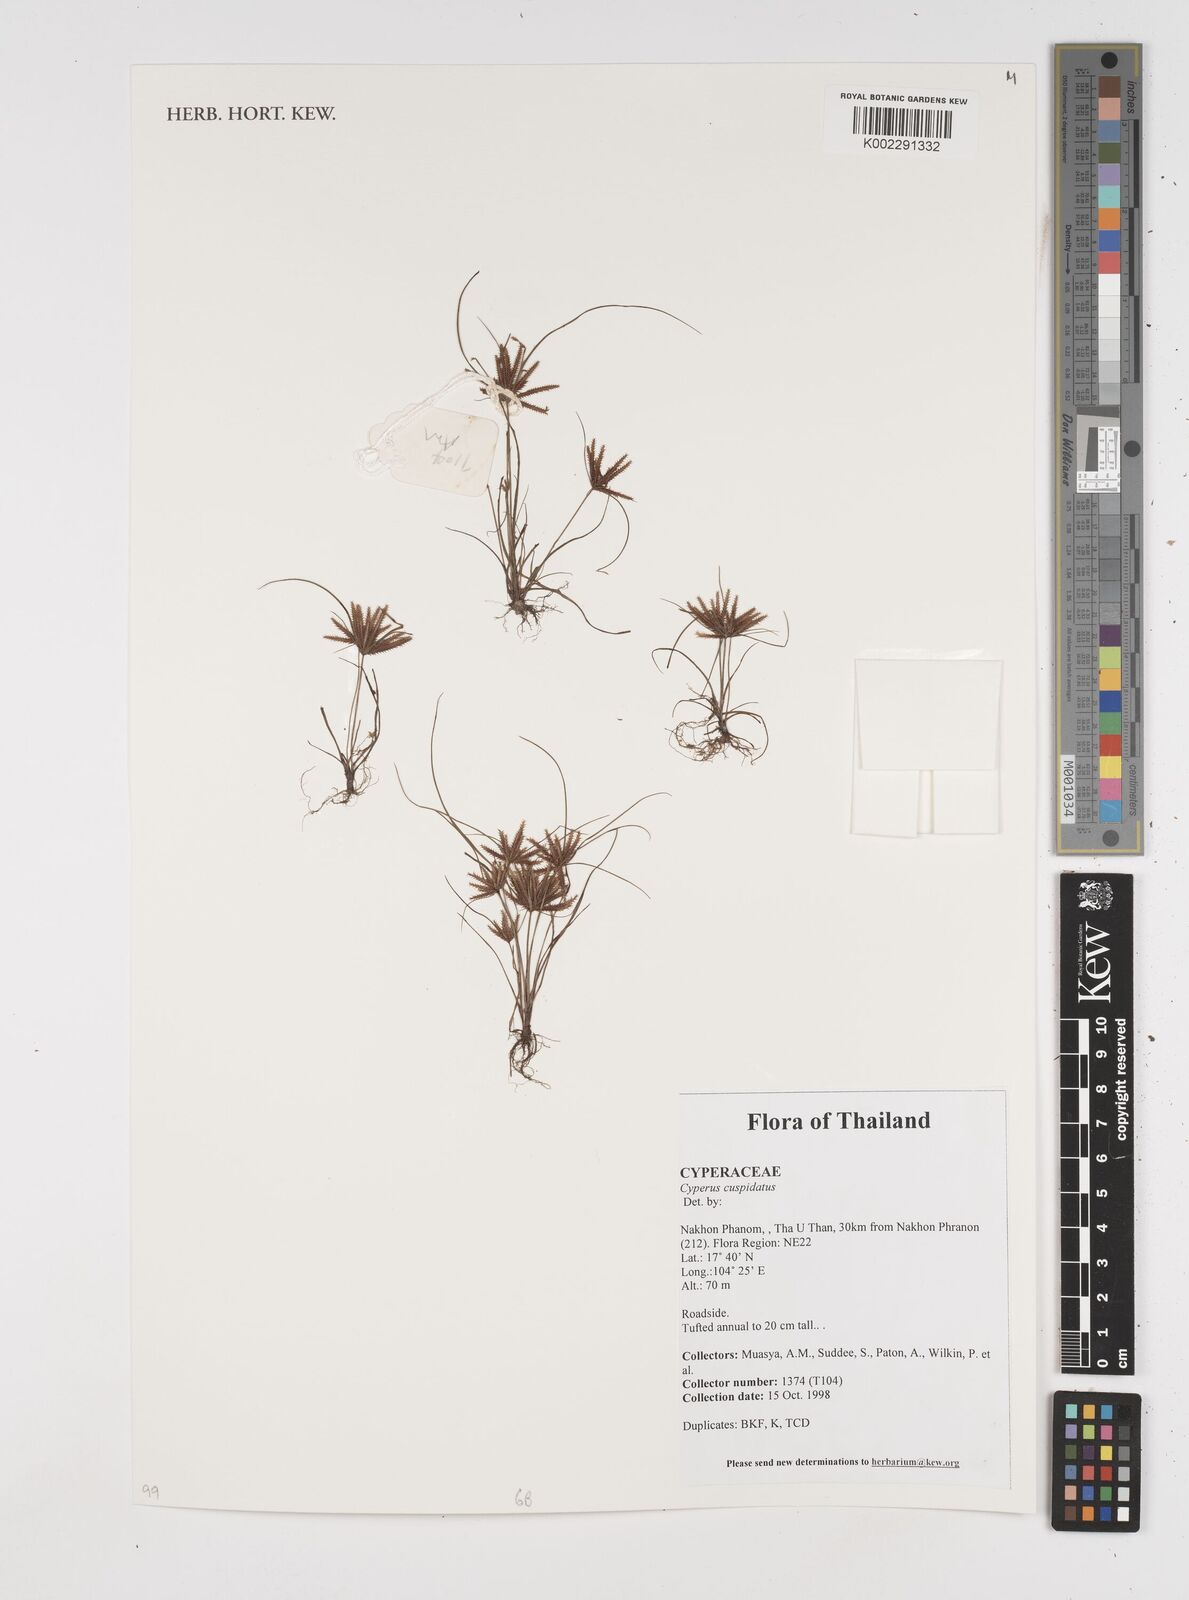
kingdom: Plantae
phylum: Tracheophyta
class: Liliopsida
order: Poales
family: Cyperaceae
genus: Cyperus
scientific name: Cyperus cuspidatus
